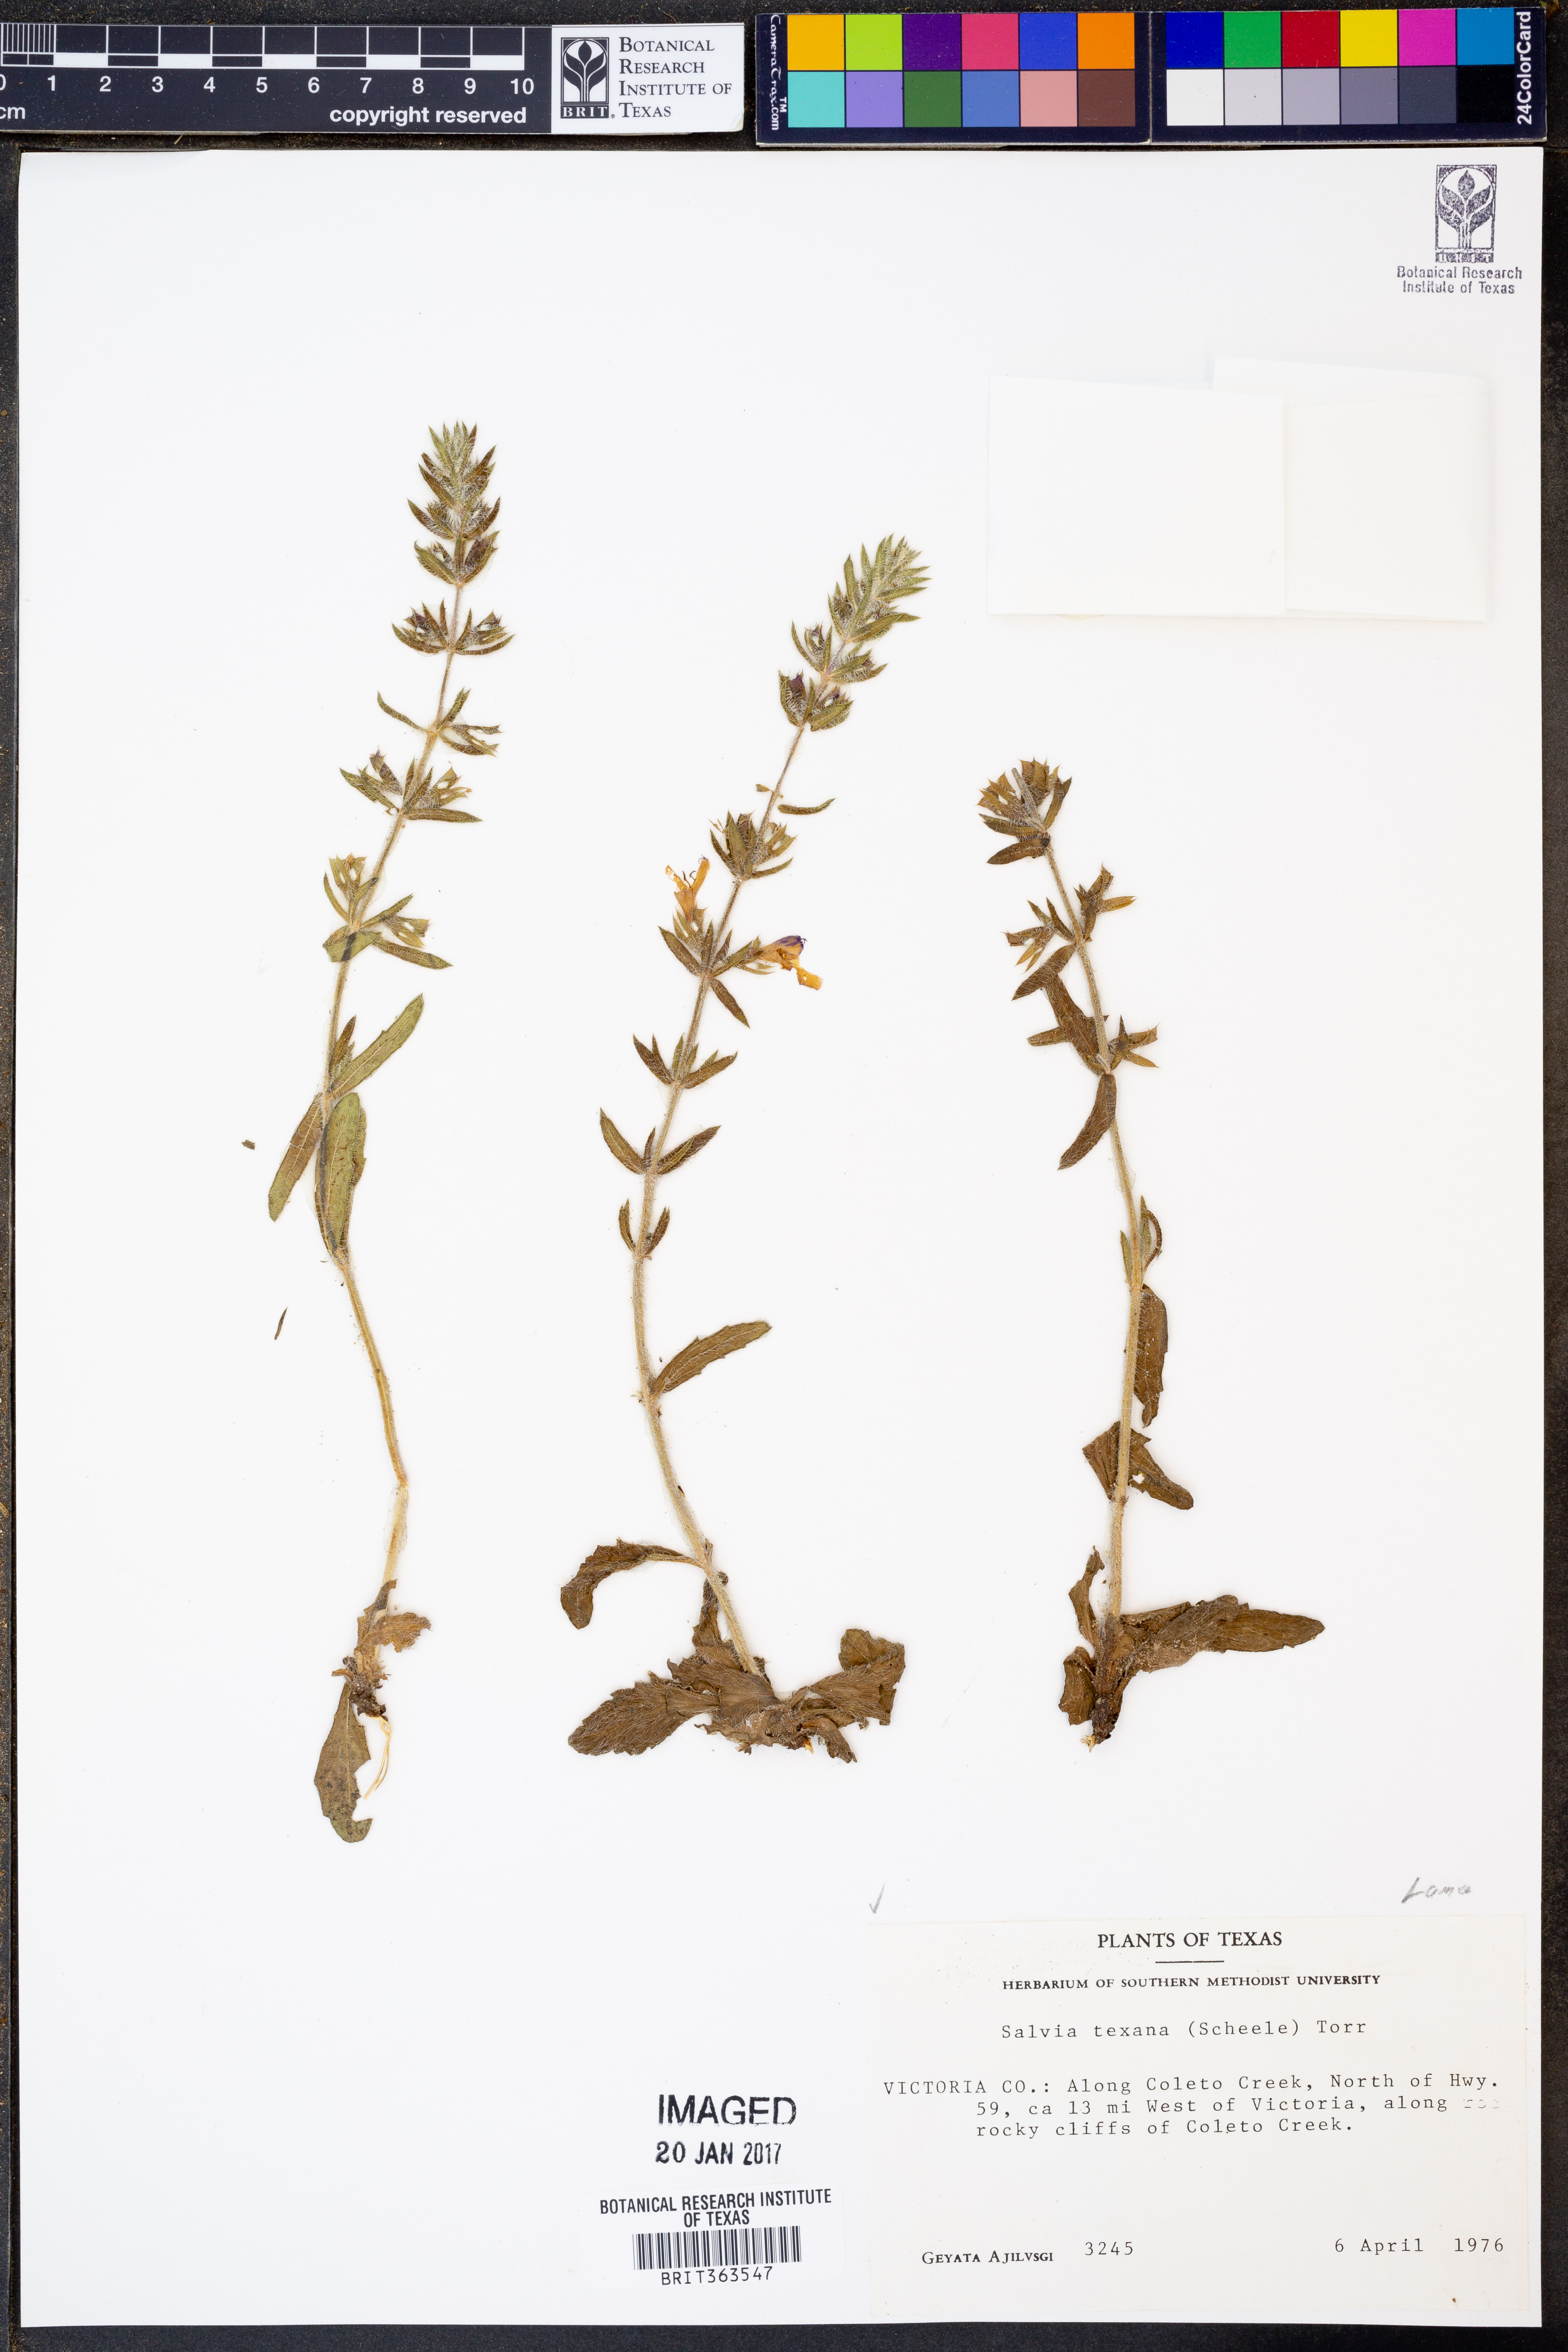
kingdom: Plantae
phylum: Tracheophyta
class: Magnoliopsida
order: Lamiales
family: Lamiaceae
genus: Salvia
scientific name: Salvia texana
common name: Texas sage
